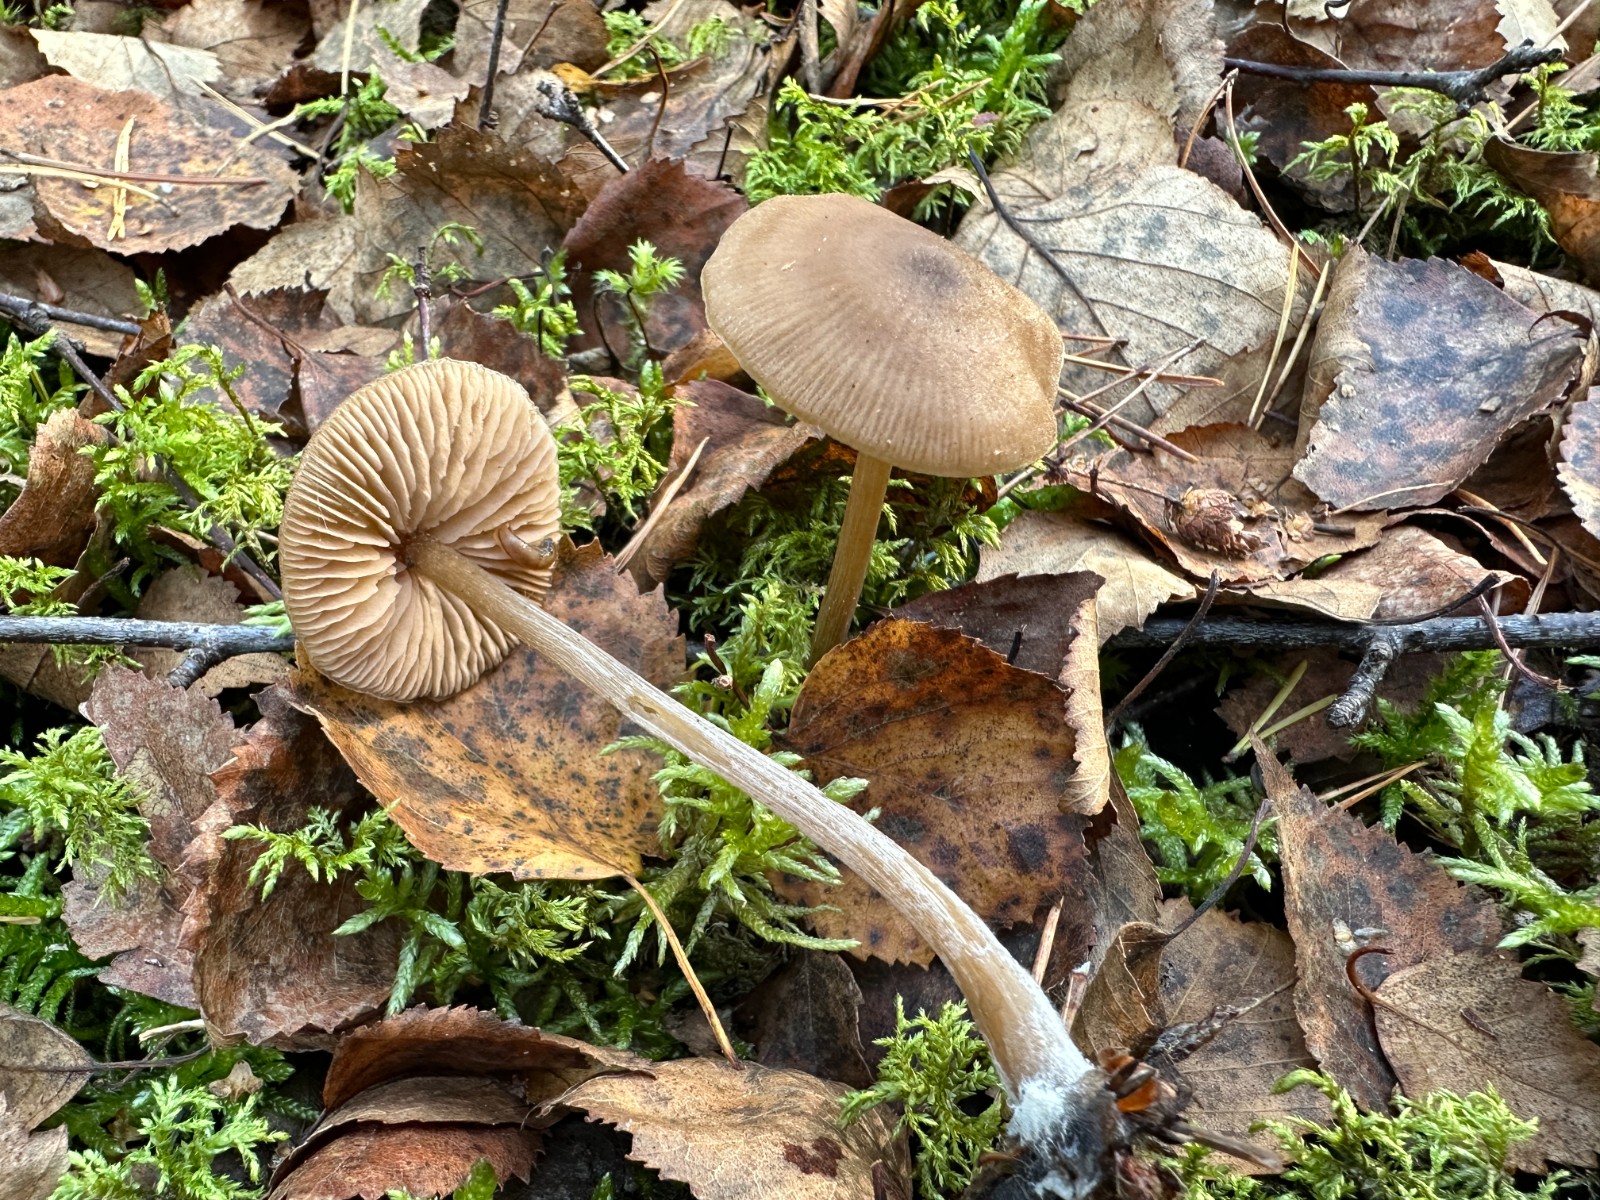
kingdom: Fungi
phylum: Basidiomycota
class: Agaricomycetes
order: Agaricales
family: Entolomataceae
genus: Entoloma
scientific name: Entoloma cetratum
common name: voks-rødblad
